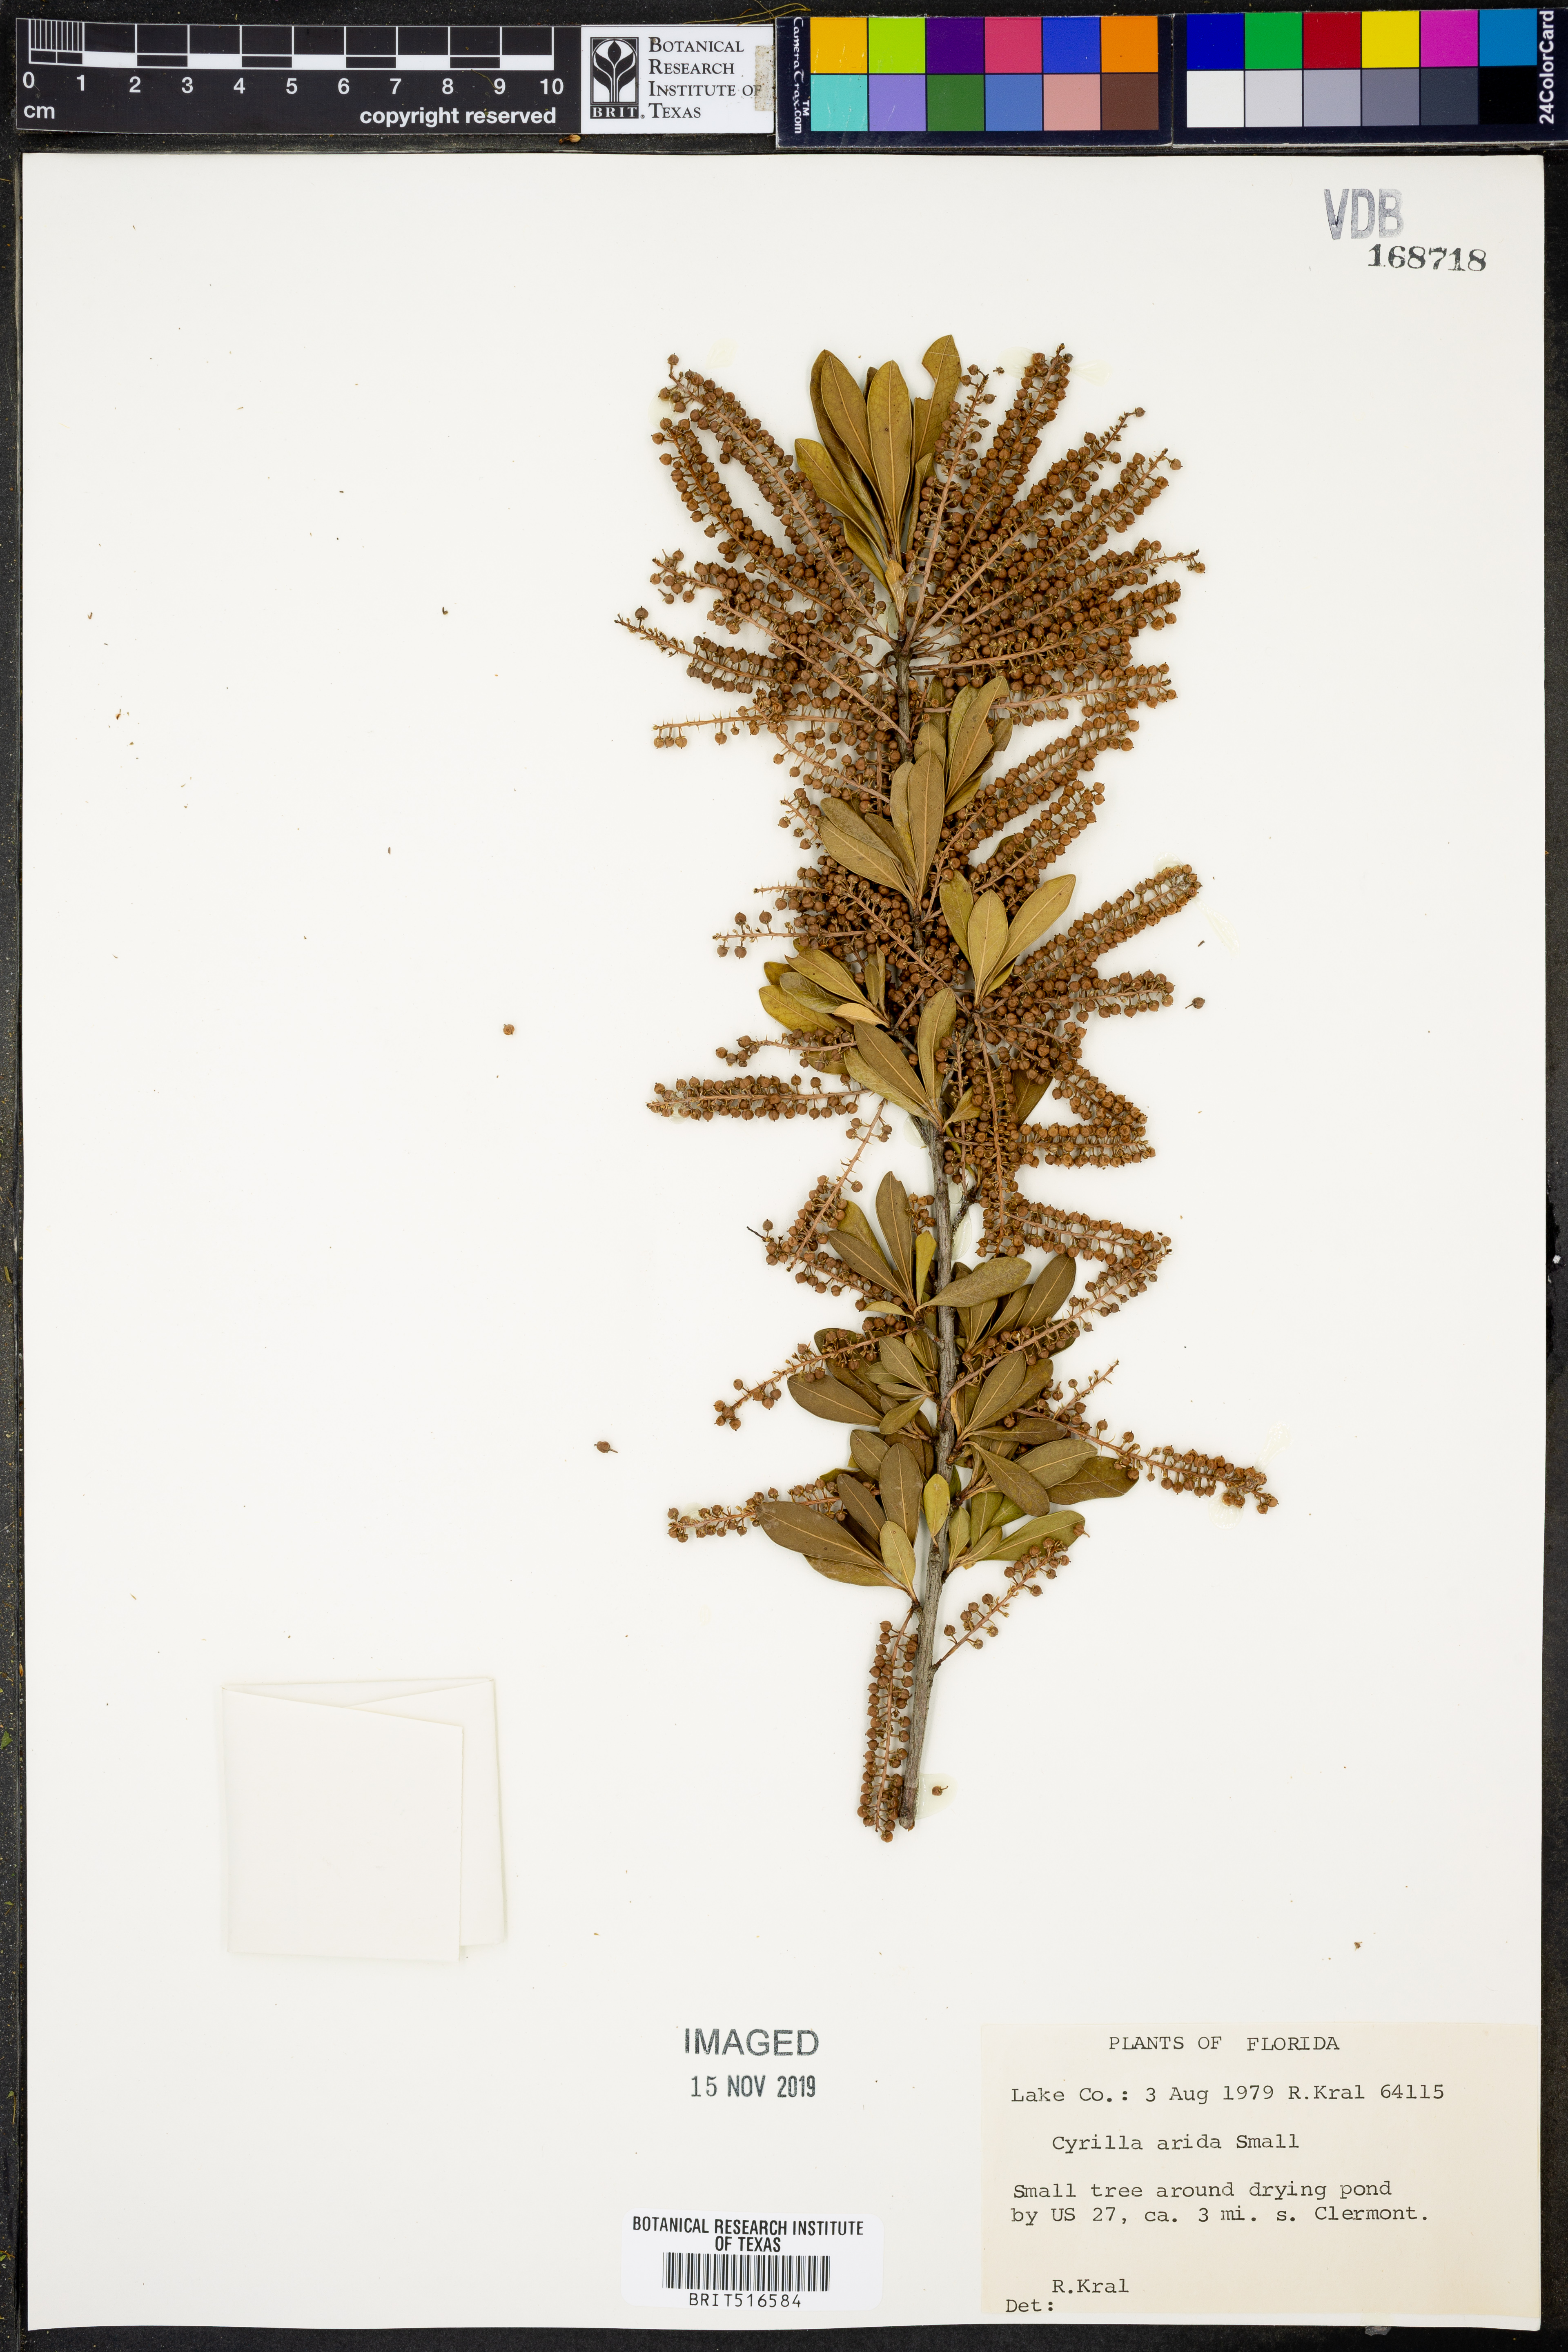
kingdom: Plantae
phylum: Tracheophyta
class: Magnoliopsida
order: Ericales
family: Cyrillaceae
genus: Cyrilla
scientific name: Cyrilla racemiflora
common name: Black titi
